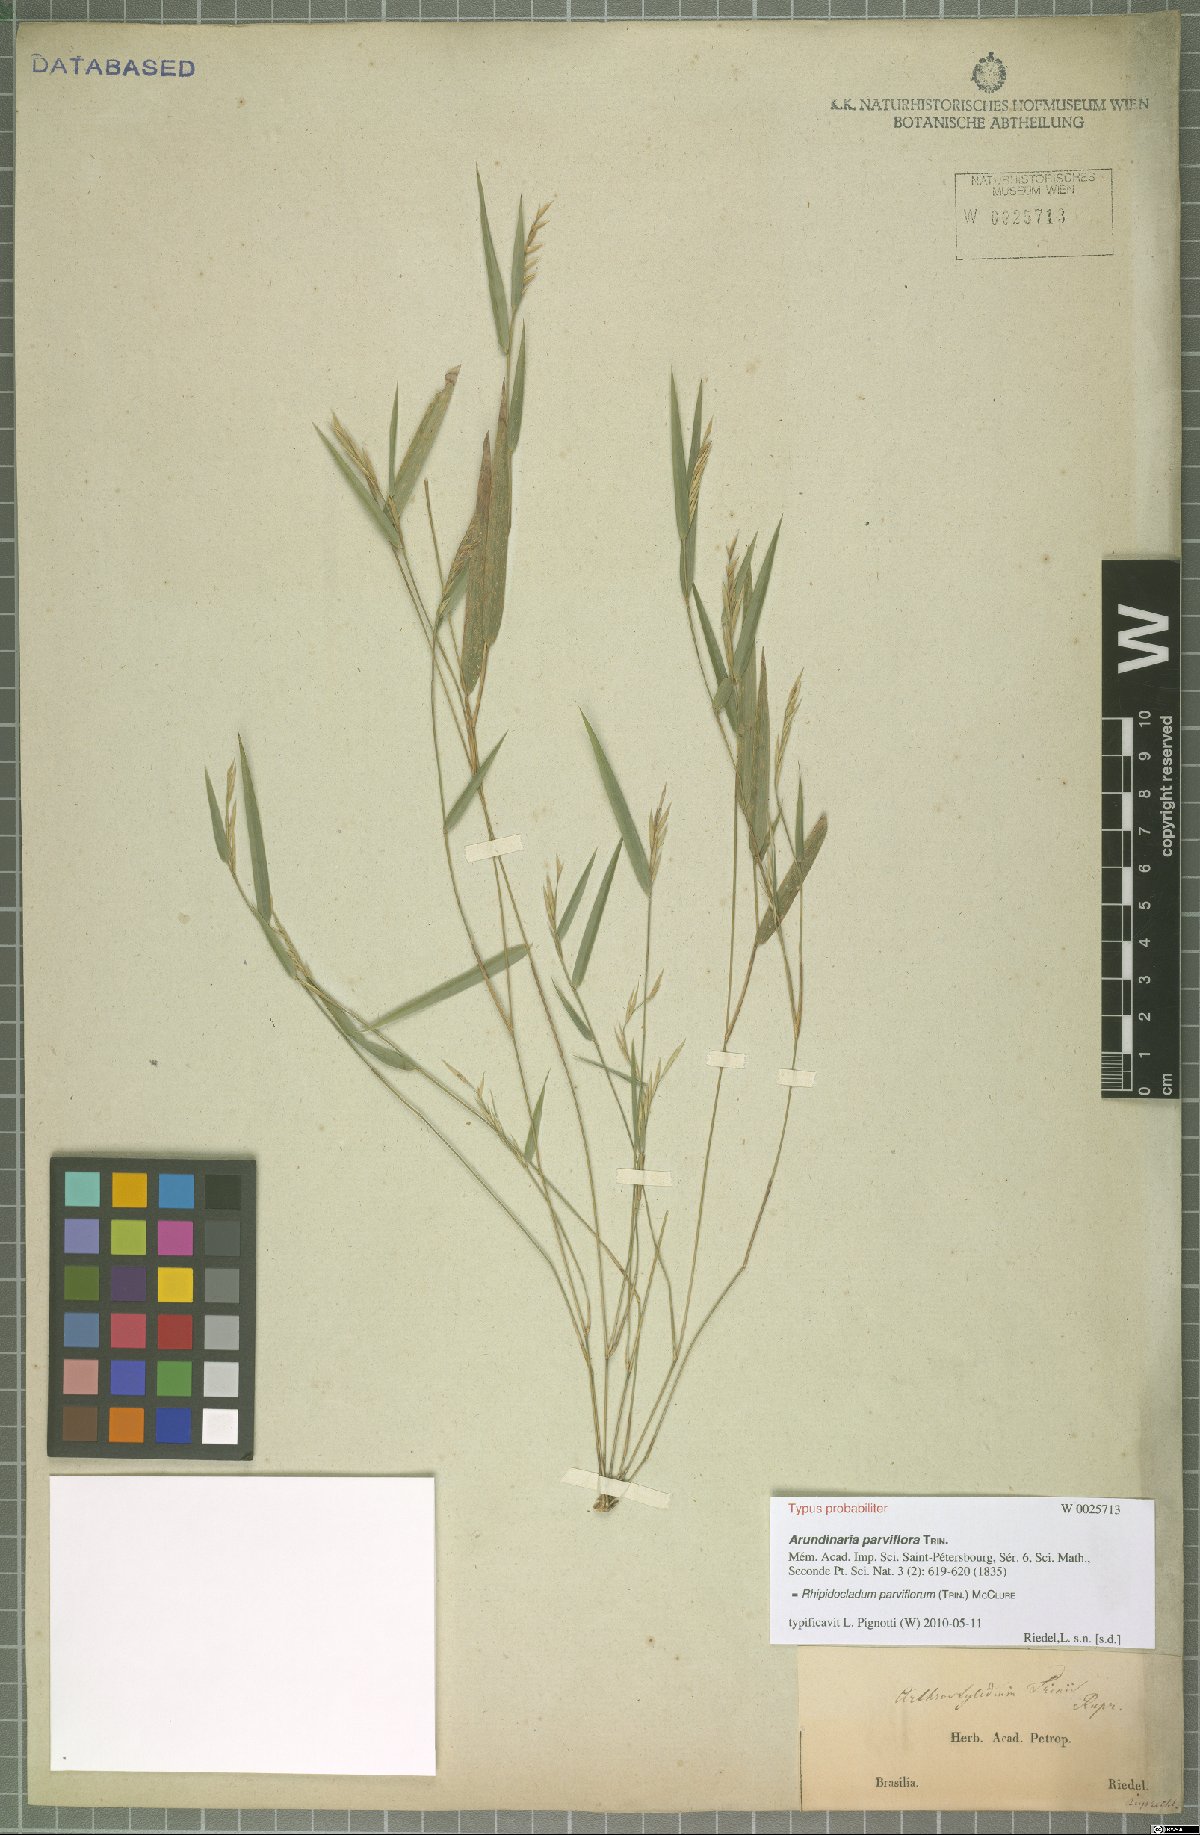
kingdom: Plantae
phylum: Tracheophyta
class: Liliopsida
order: Poales
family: Poaceae
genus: Rhipidocladum
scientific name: Rhipidocladum parviflorum
